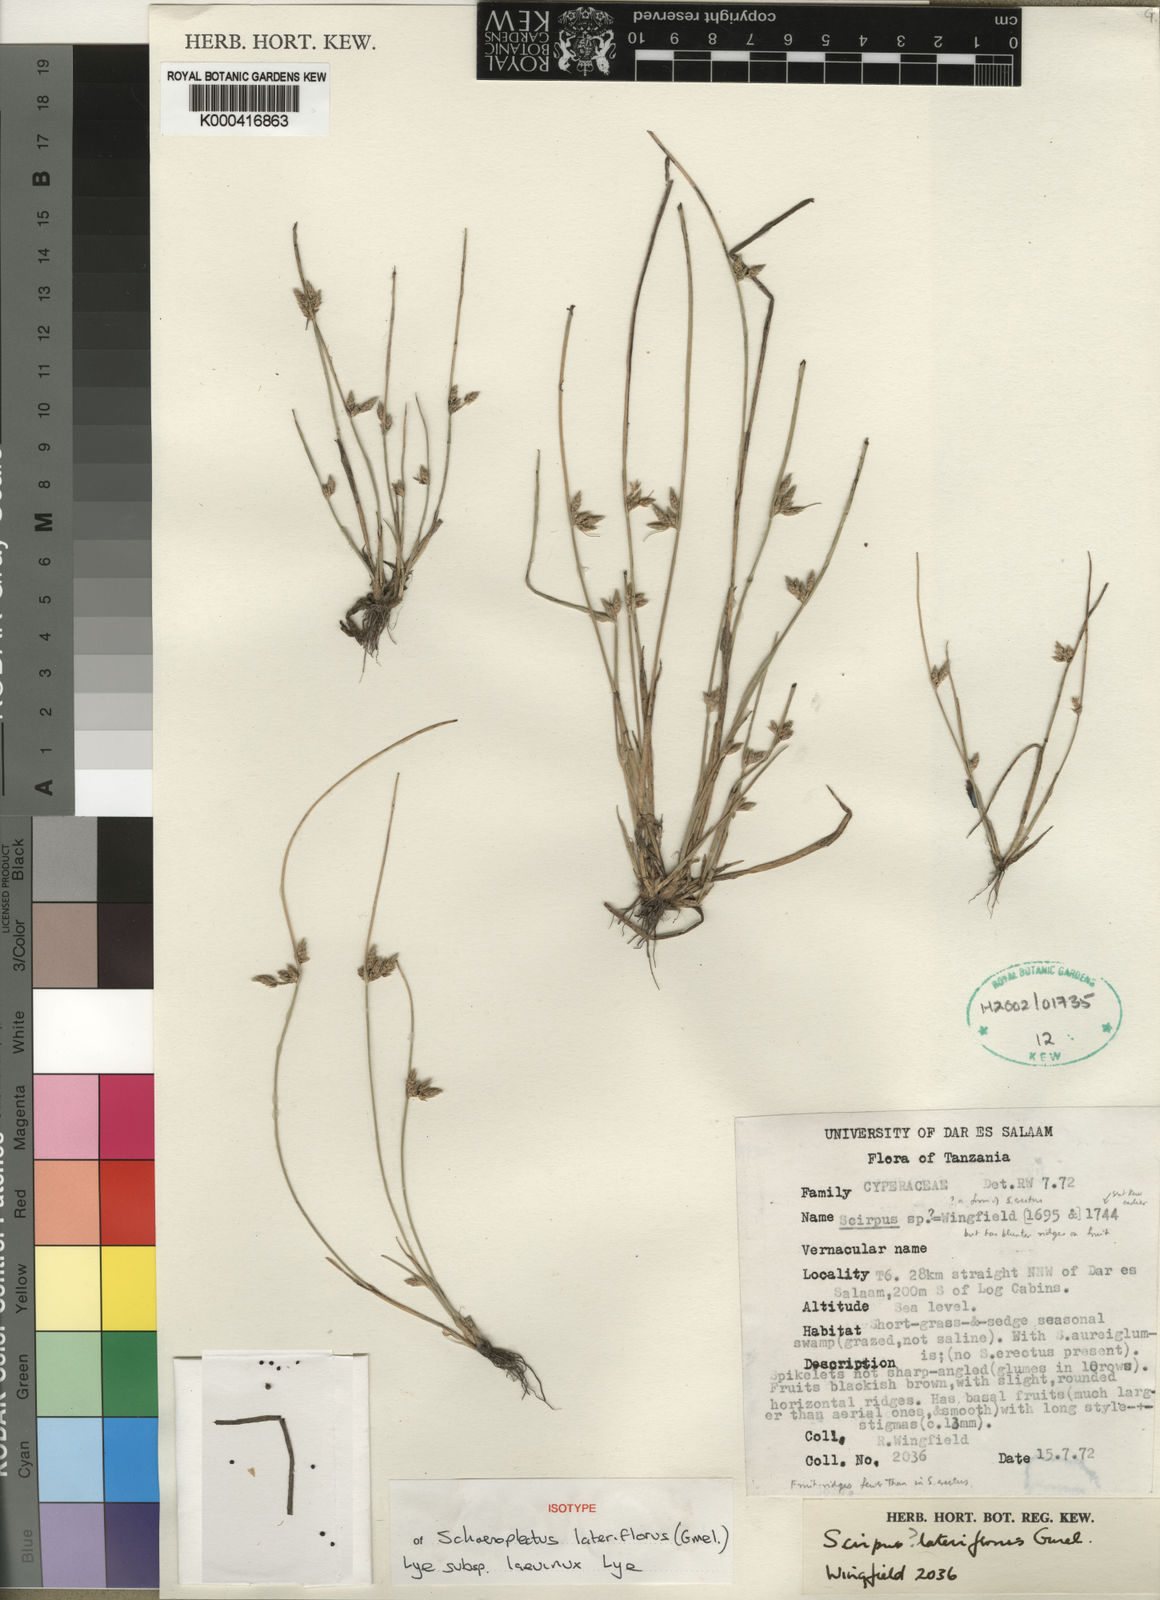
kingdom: Plantae
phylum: Tracheophyta
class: Liliopsida
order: Poales
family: Cyperaceae
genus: Schoenoplectiella
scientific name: Schoenoplectiella lateriflora
